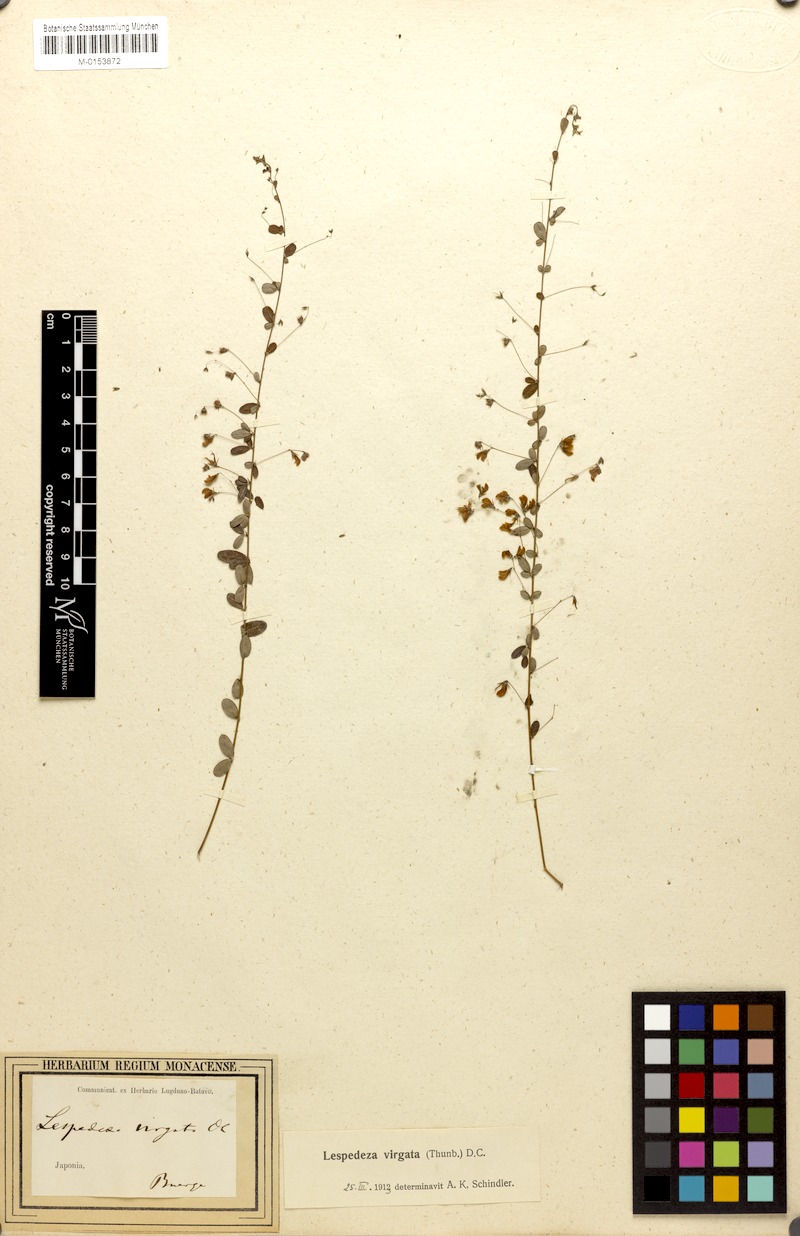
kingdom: Plantae
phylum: Tracheophyta
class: Magnoliopsida
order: Fabales
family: Fabaceae
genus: Lespedeza
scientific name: Lespedeza virgata
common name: Wand lespedeza
